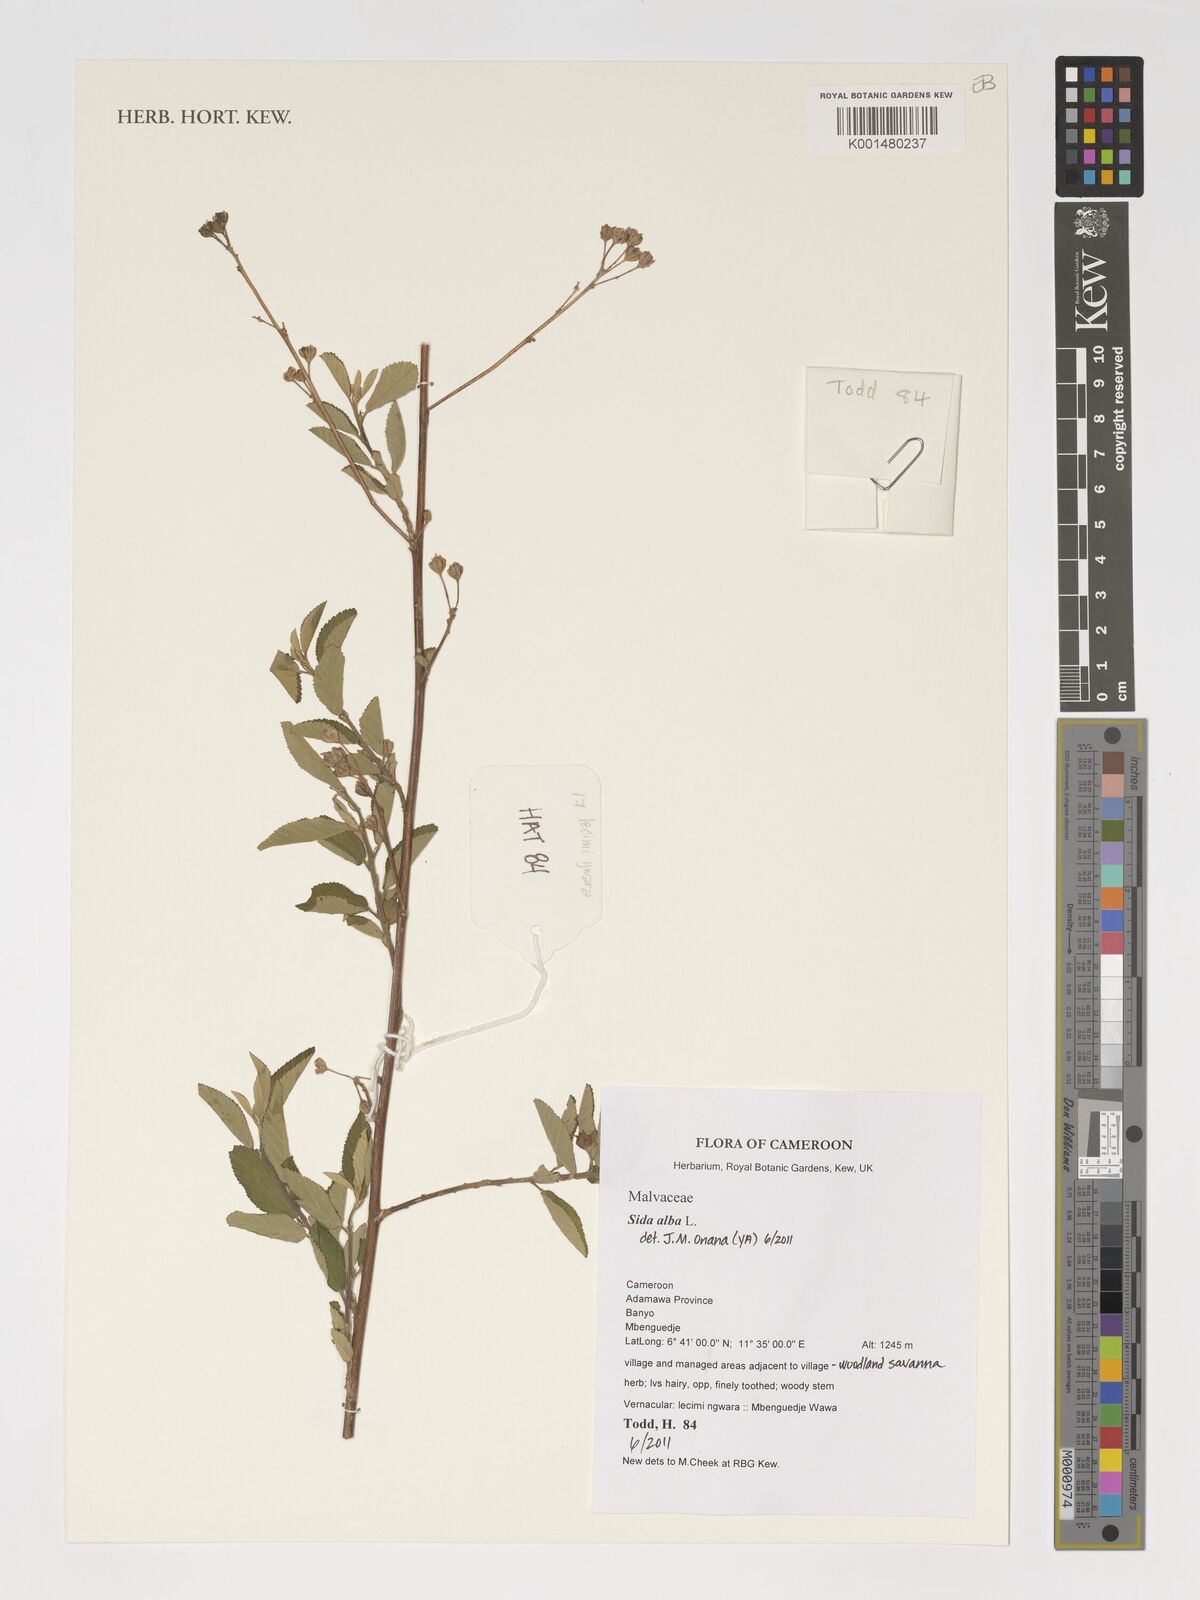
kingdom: Plantae
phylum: Tracheophyta
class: Magnoliopsida
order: Malvales
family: Malvaceae
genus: Sida
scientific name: Sida alba
